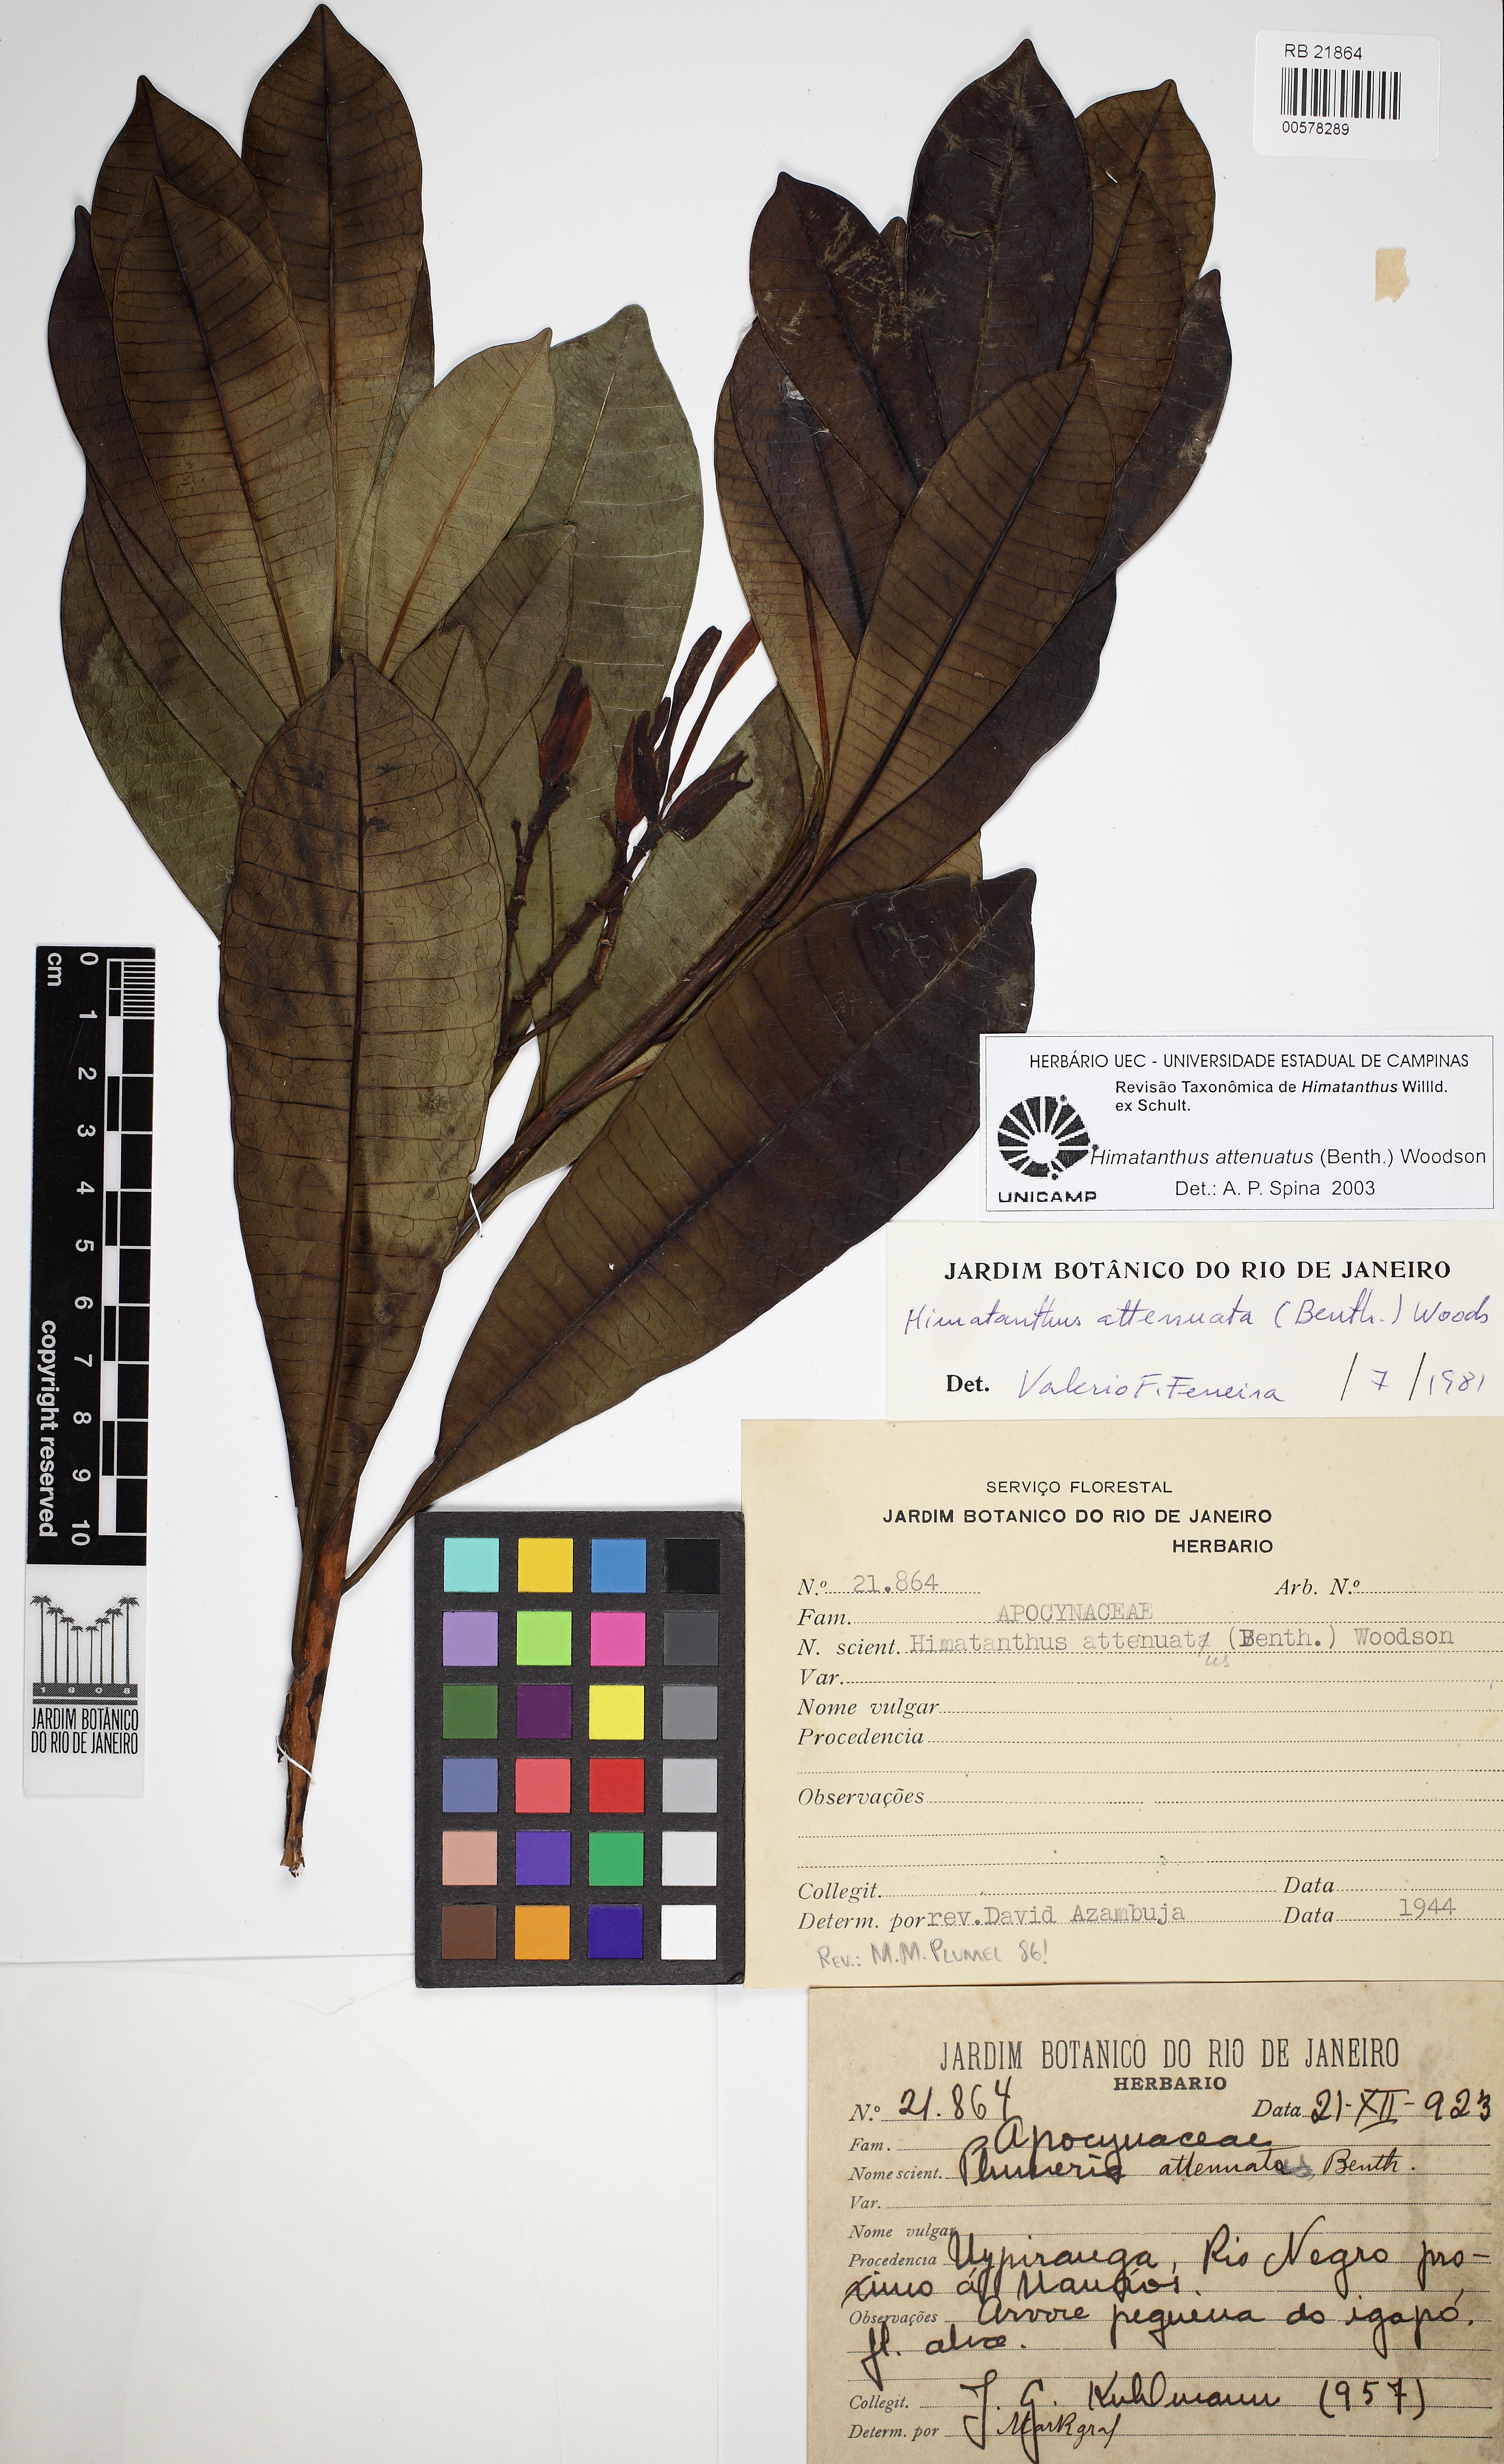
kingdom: Plantae
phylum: Tracheophyta
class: Magnoliopsida
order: Gentianales
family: Apocynaceae
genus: Himatanthus
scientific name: Himatanthus attenuatus
